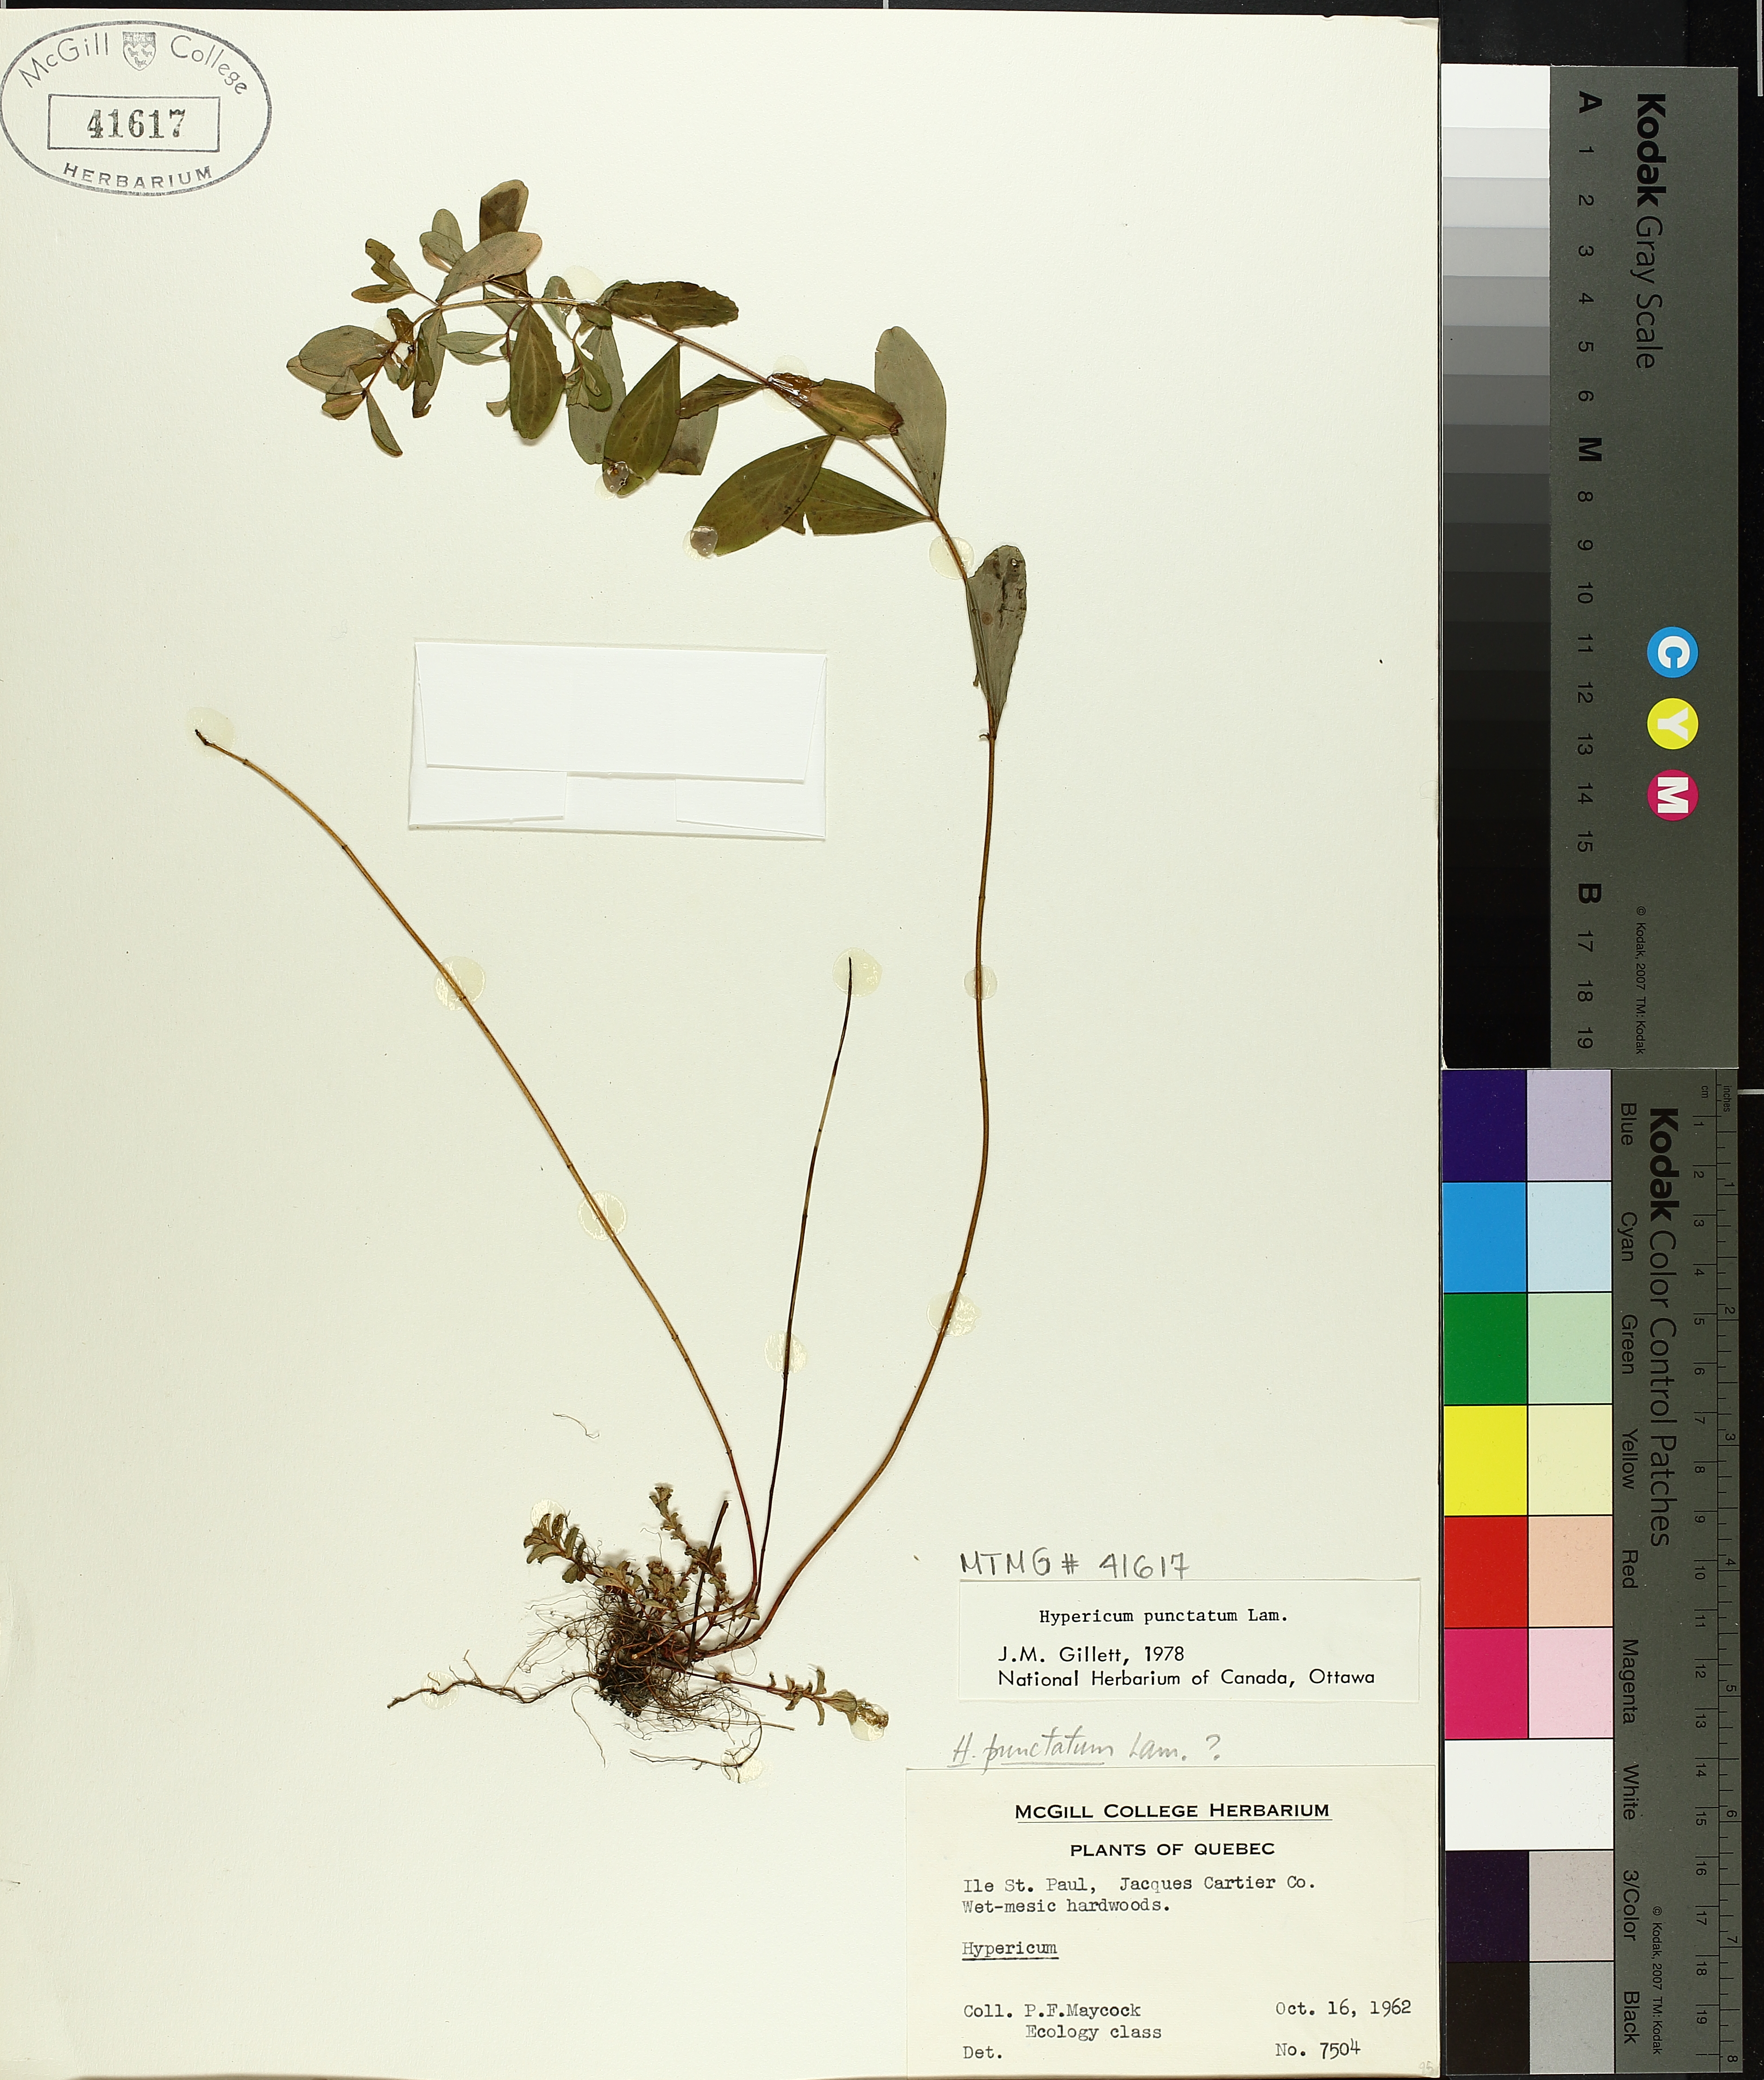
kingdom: Plantae
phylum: Tracheophyta
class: Magnoliopsida
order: Malpighiales
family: Hypericaceae
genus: Hypericum
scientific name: Hypericum punctatum
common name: Spotted st. john's-wort
